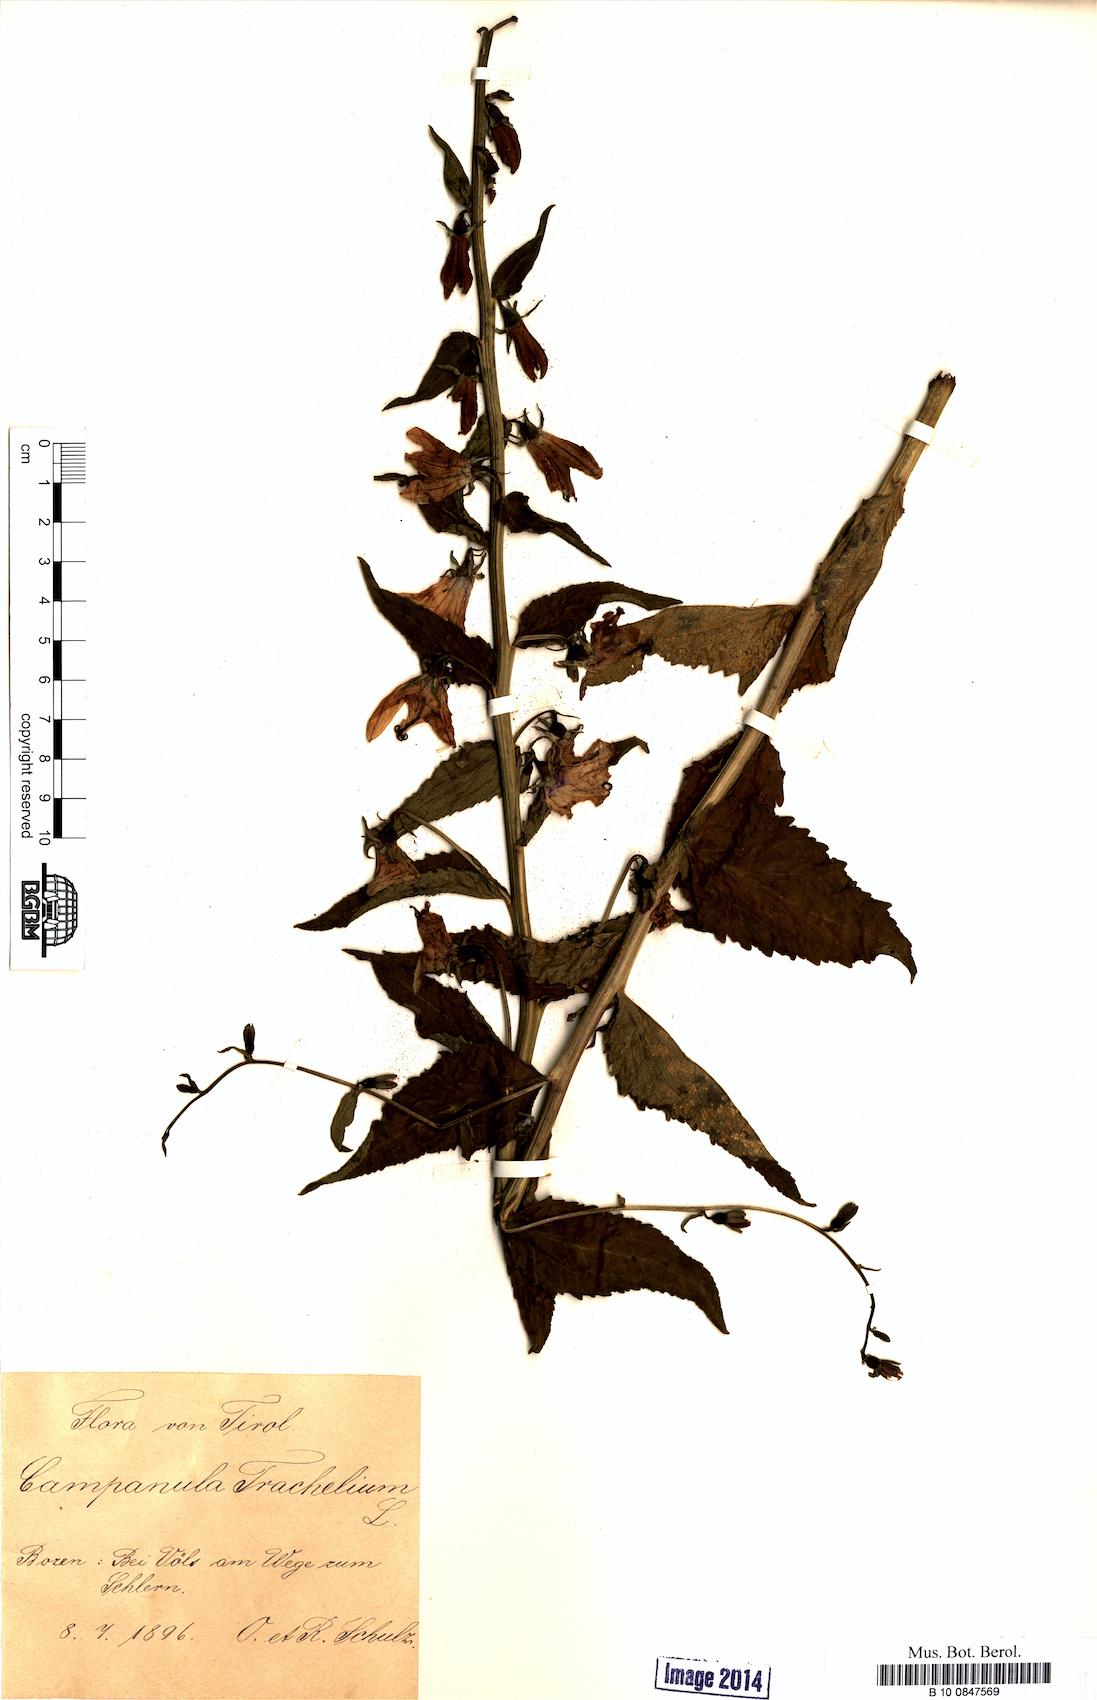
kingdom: Plantae
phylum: Tracheophyta
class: Magnoliopsida
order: Asterales
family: Campanulaceae
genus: Campanula
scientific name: Campanula trachelium
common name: Nettle-leaved bellflower
